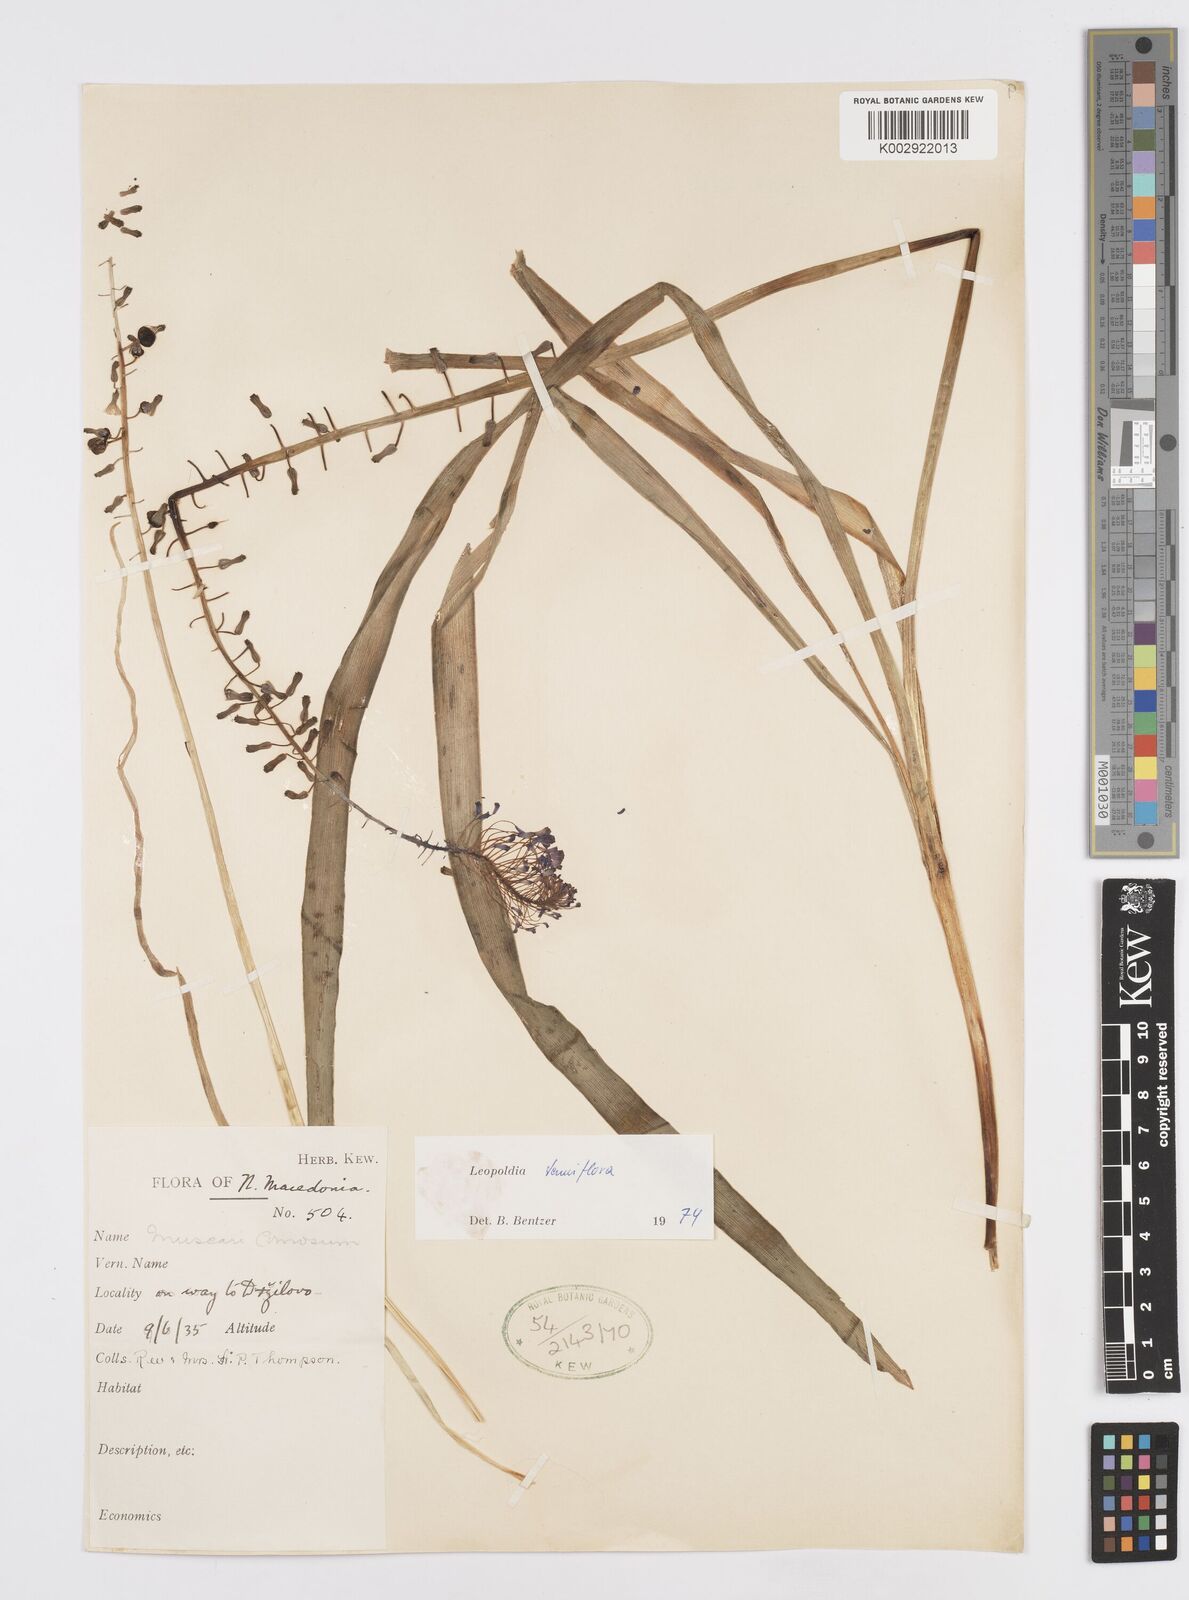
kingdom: Plantae
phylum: Tracheophyta
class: Liliopsida
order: Asparagales
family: Asparagaceae
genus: Muscari
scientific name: Muscari tenuiflorum
